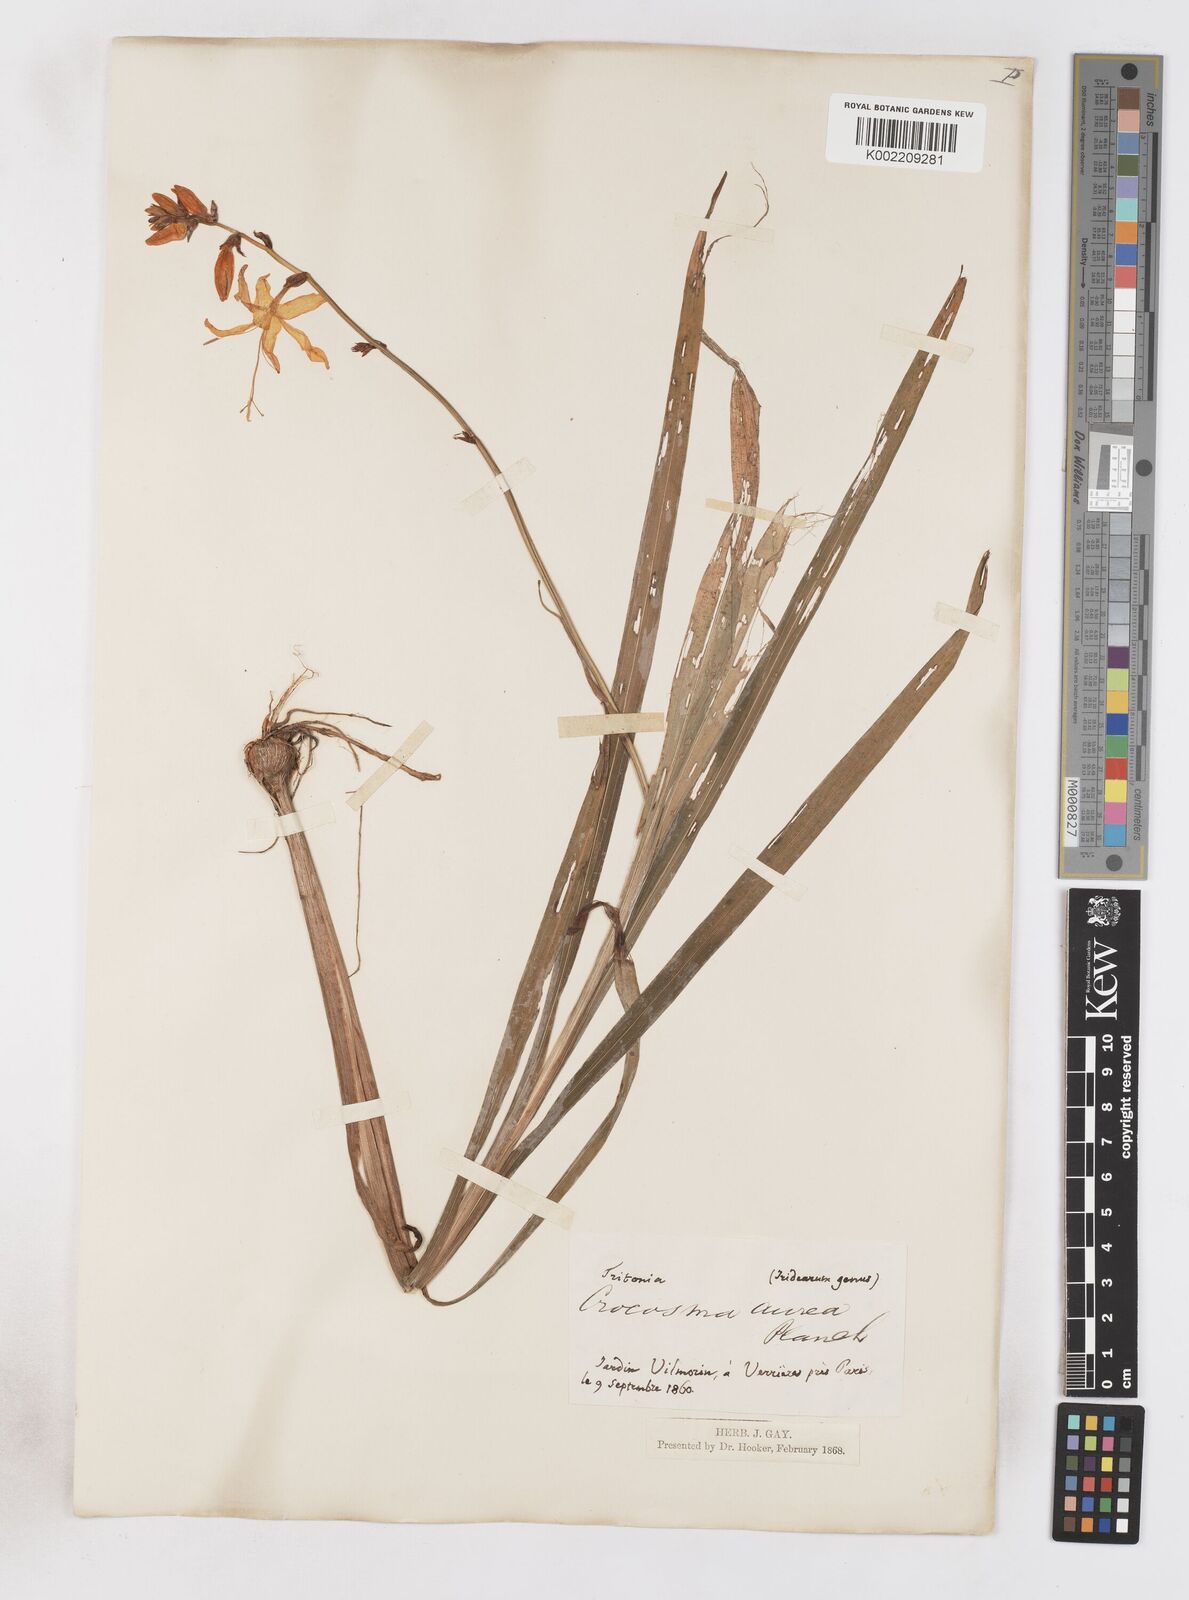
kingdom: Plantae
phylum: Tracheophyta
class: Liliopsida
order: Asparagales
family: Iridaceae
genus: Crocosmia
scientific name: Crocosmia aurea
